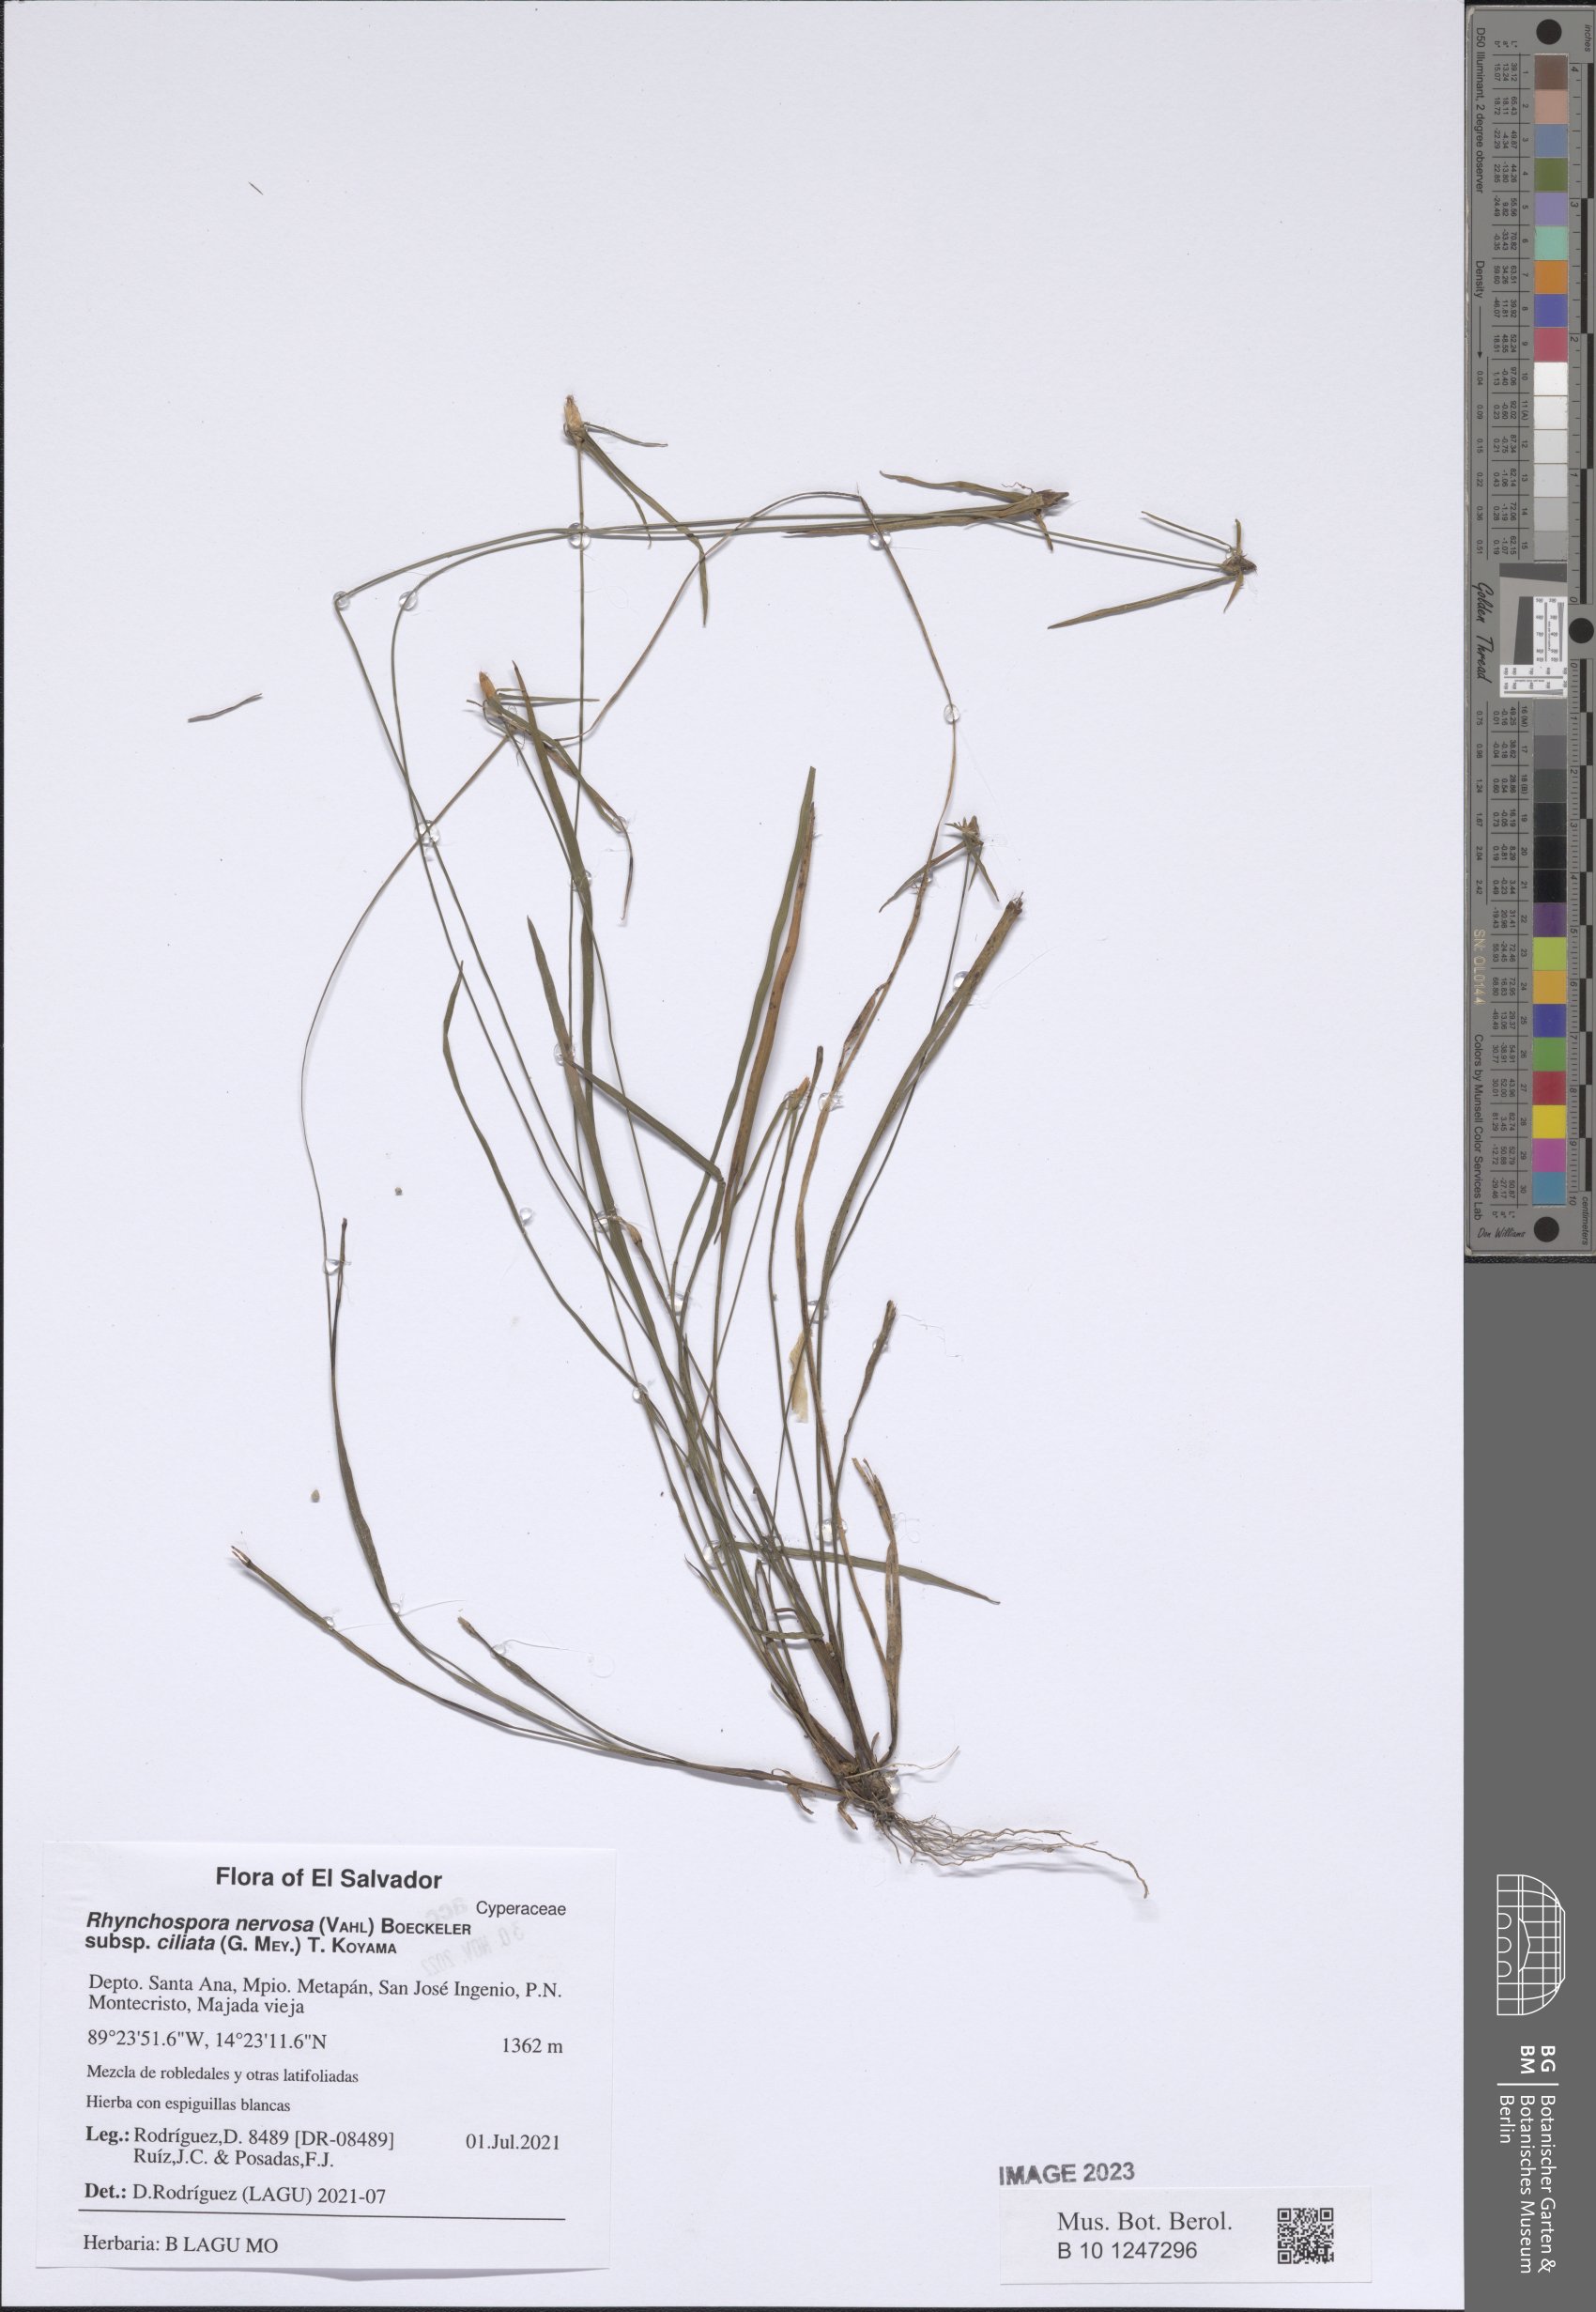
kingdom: Plantae
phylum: Tracheophyta
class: Liliopsida
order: Poales
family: Cyperaceae
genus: Rhynchospora
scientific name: Rhynchospora pura
